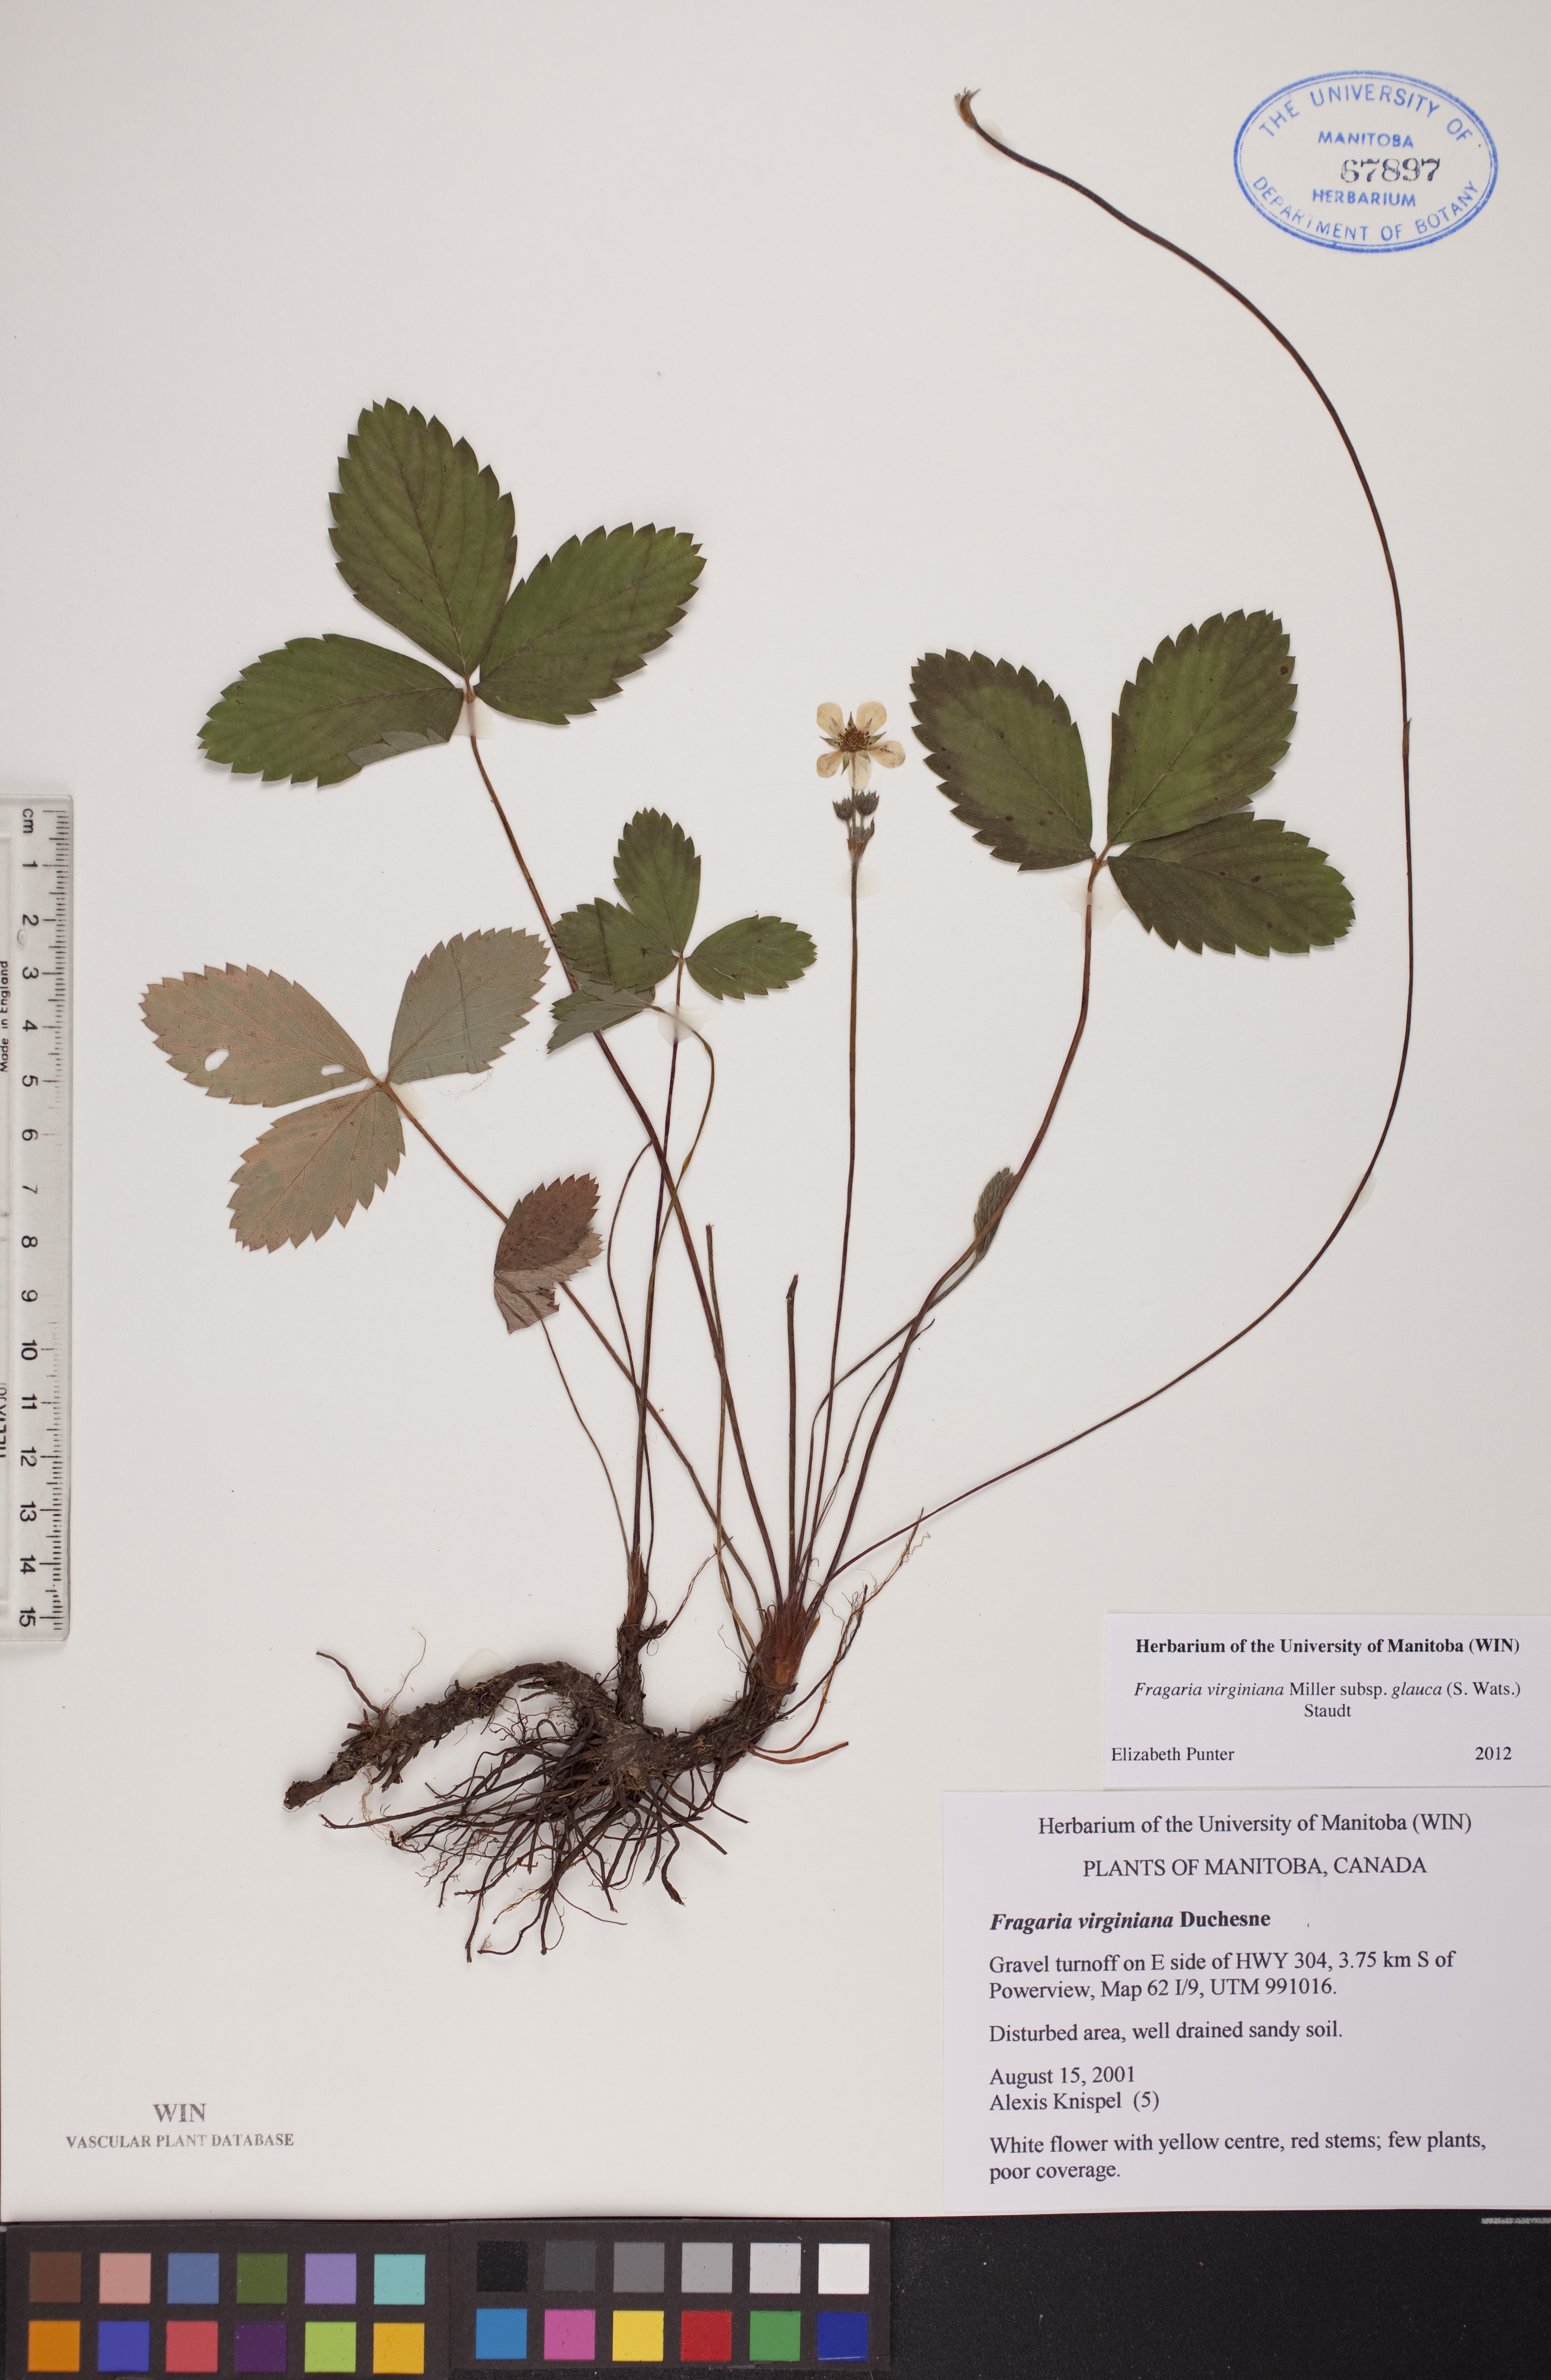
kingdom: Plantae
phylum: Tracheophyta
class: Magnoliopsida
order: Rosales
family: Rosaceae
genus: Fragaria
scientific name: Fragaria virginiana
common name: Thickleaved wild strawberry
